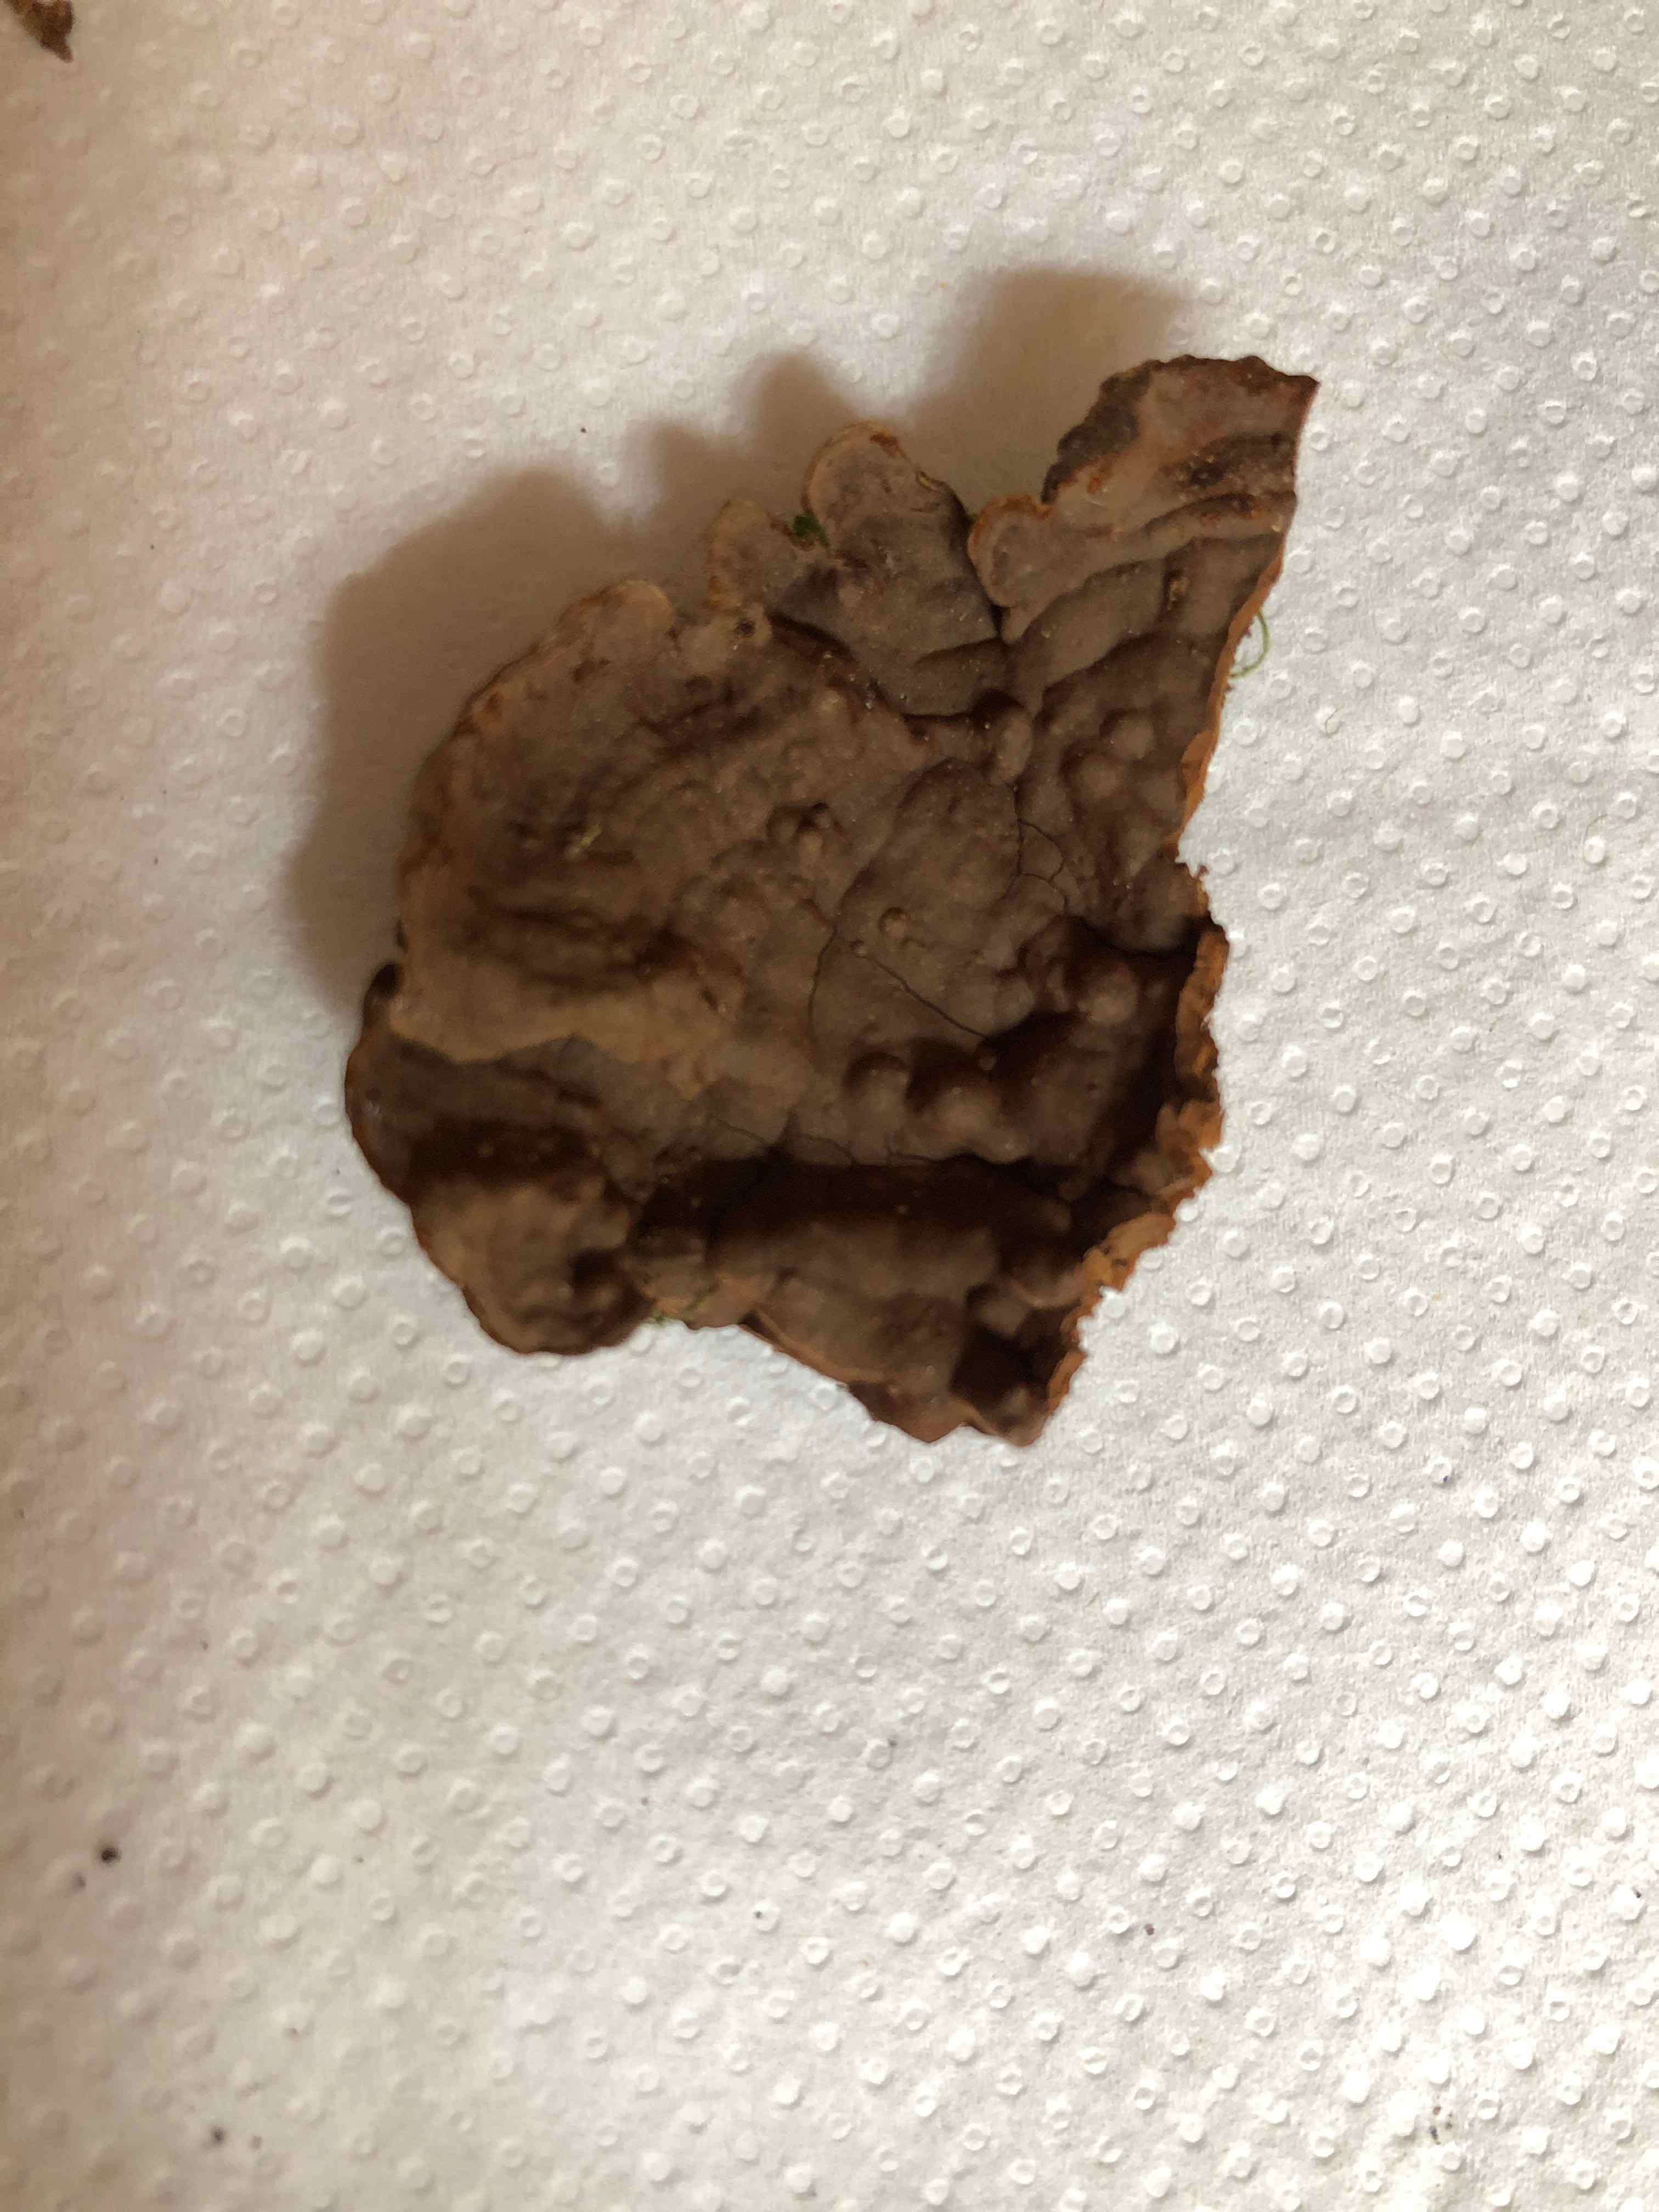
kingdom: Fungi
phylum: Basidiomycota
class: Agaricomycetes
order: Hymenochaetales
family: Hymenochaetaceae
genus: Hymenochaete
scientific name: Hymenochaete rubiginosa
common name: stiv ruslædersvamp
